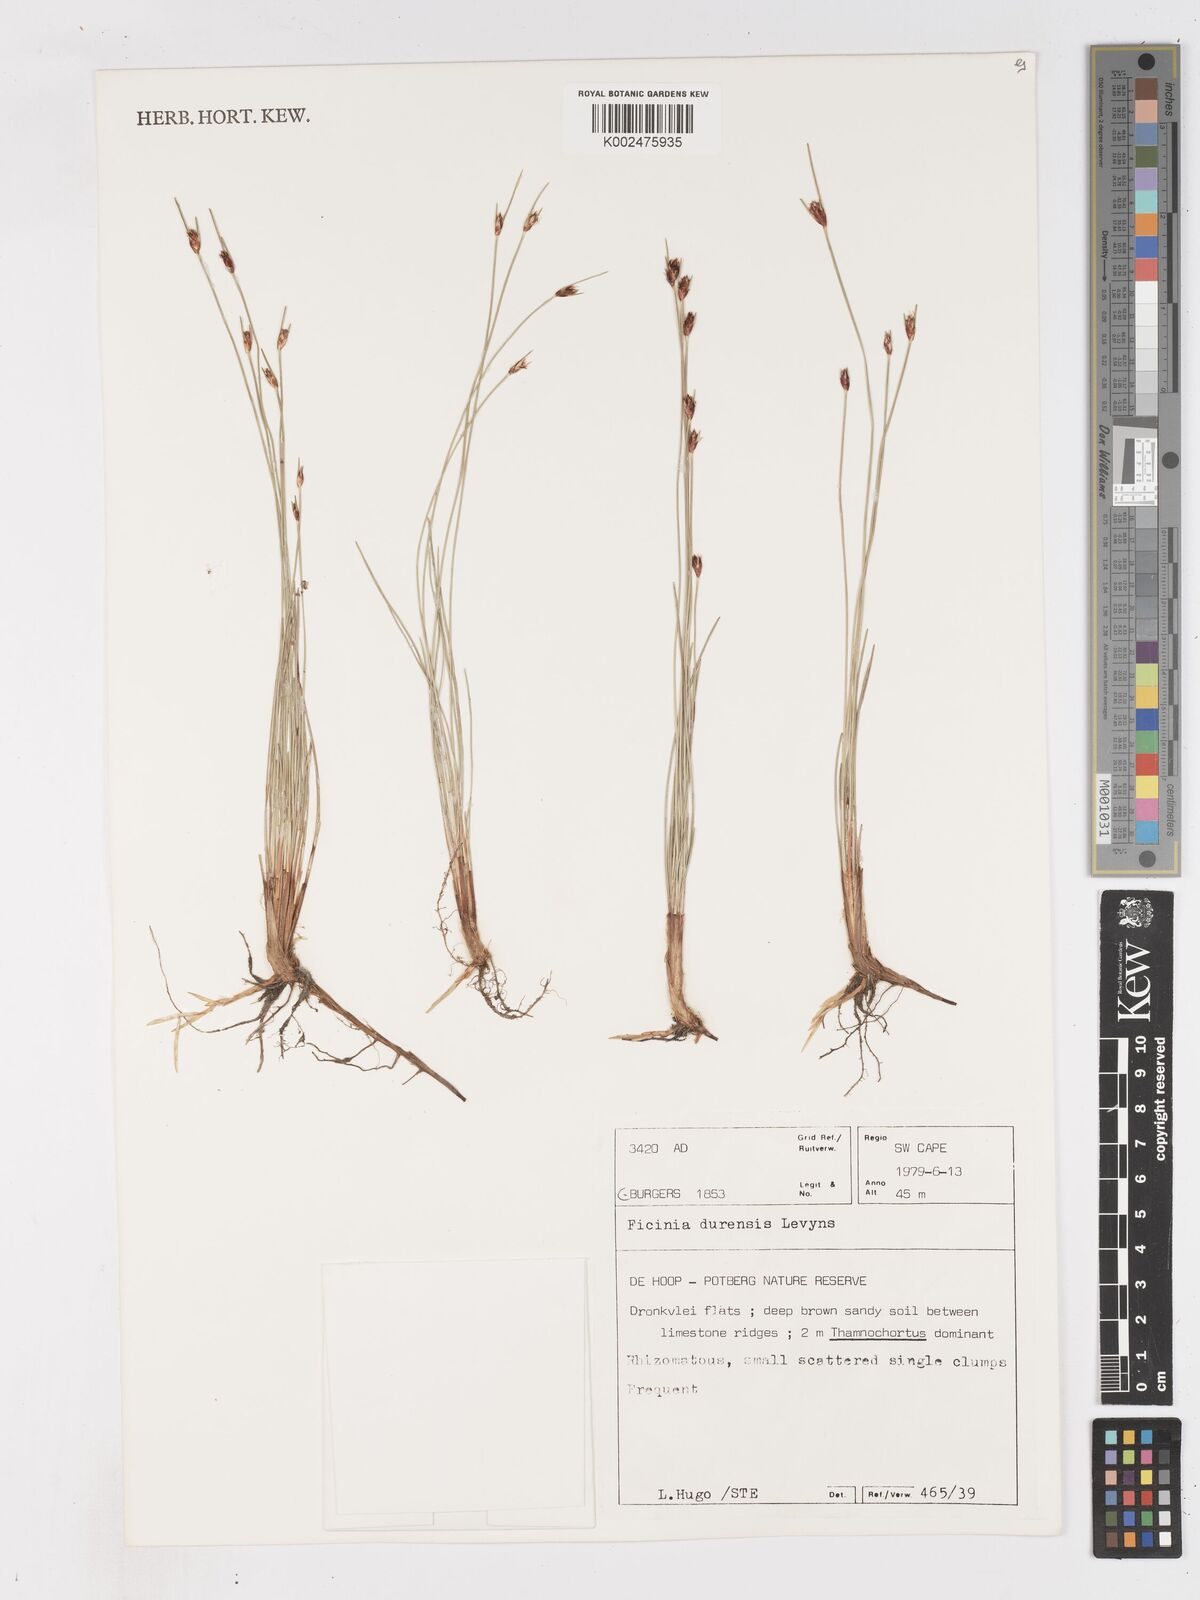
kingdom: Plantae
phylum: Tracheophyta
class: Liliopsida
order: Poales
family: Cyperaceae
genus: Ficinia
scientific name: Ficinia dunensis
